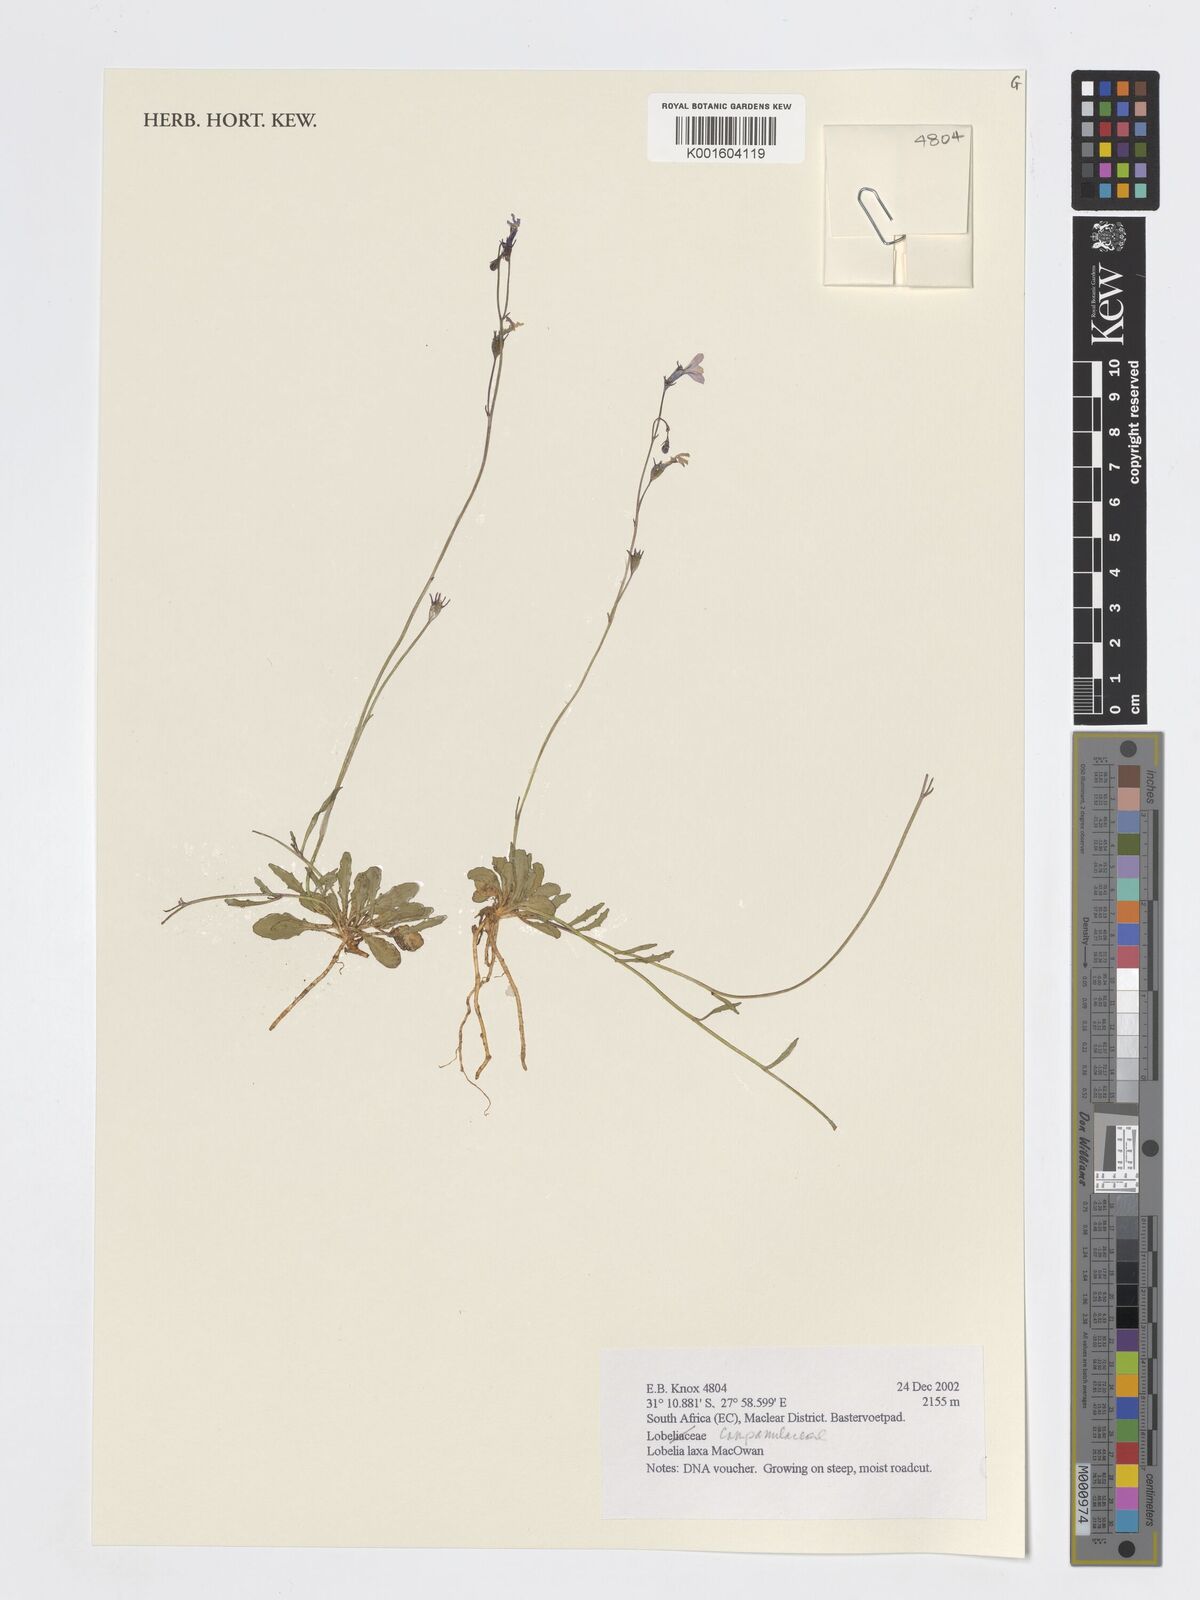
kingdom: Plantae
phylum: Tracheophyta
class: Magnoliopsida
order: Asterales
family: Campanulaceae
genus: Lobelia
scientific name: Lobelia laxa
